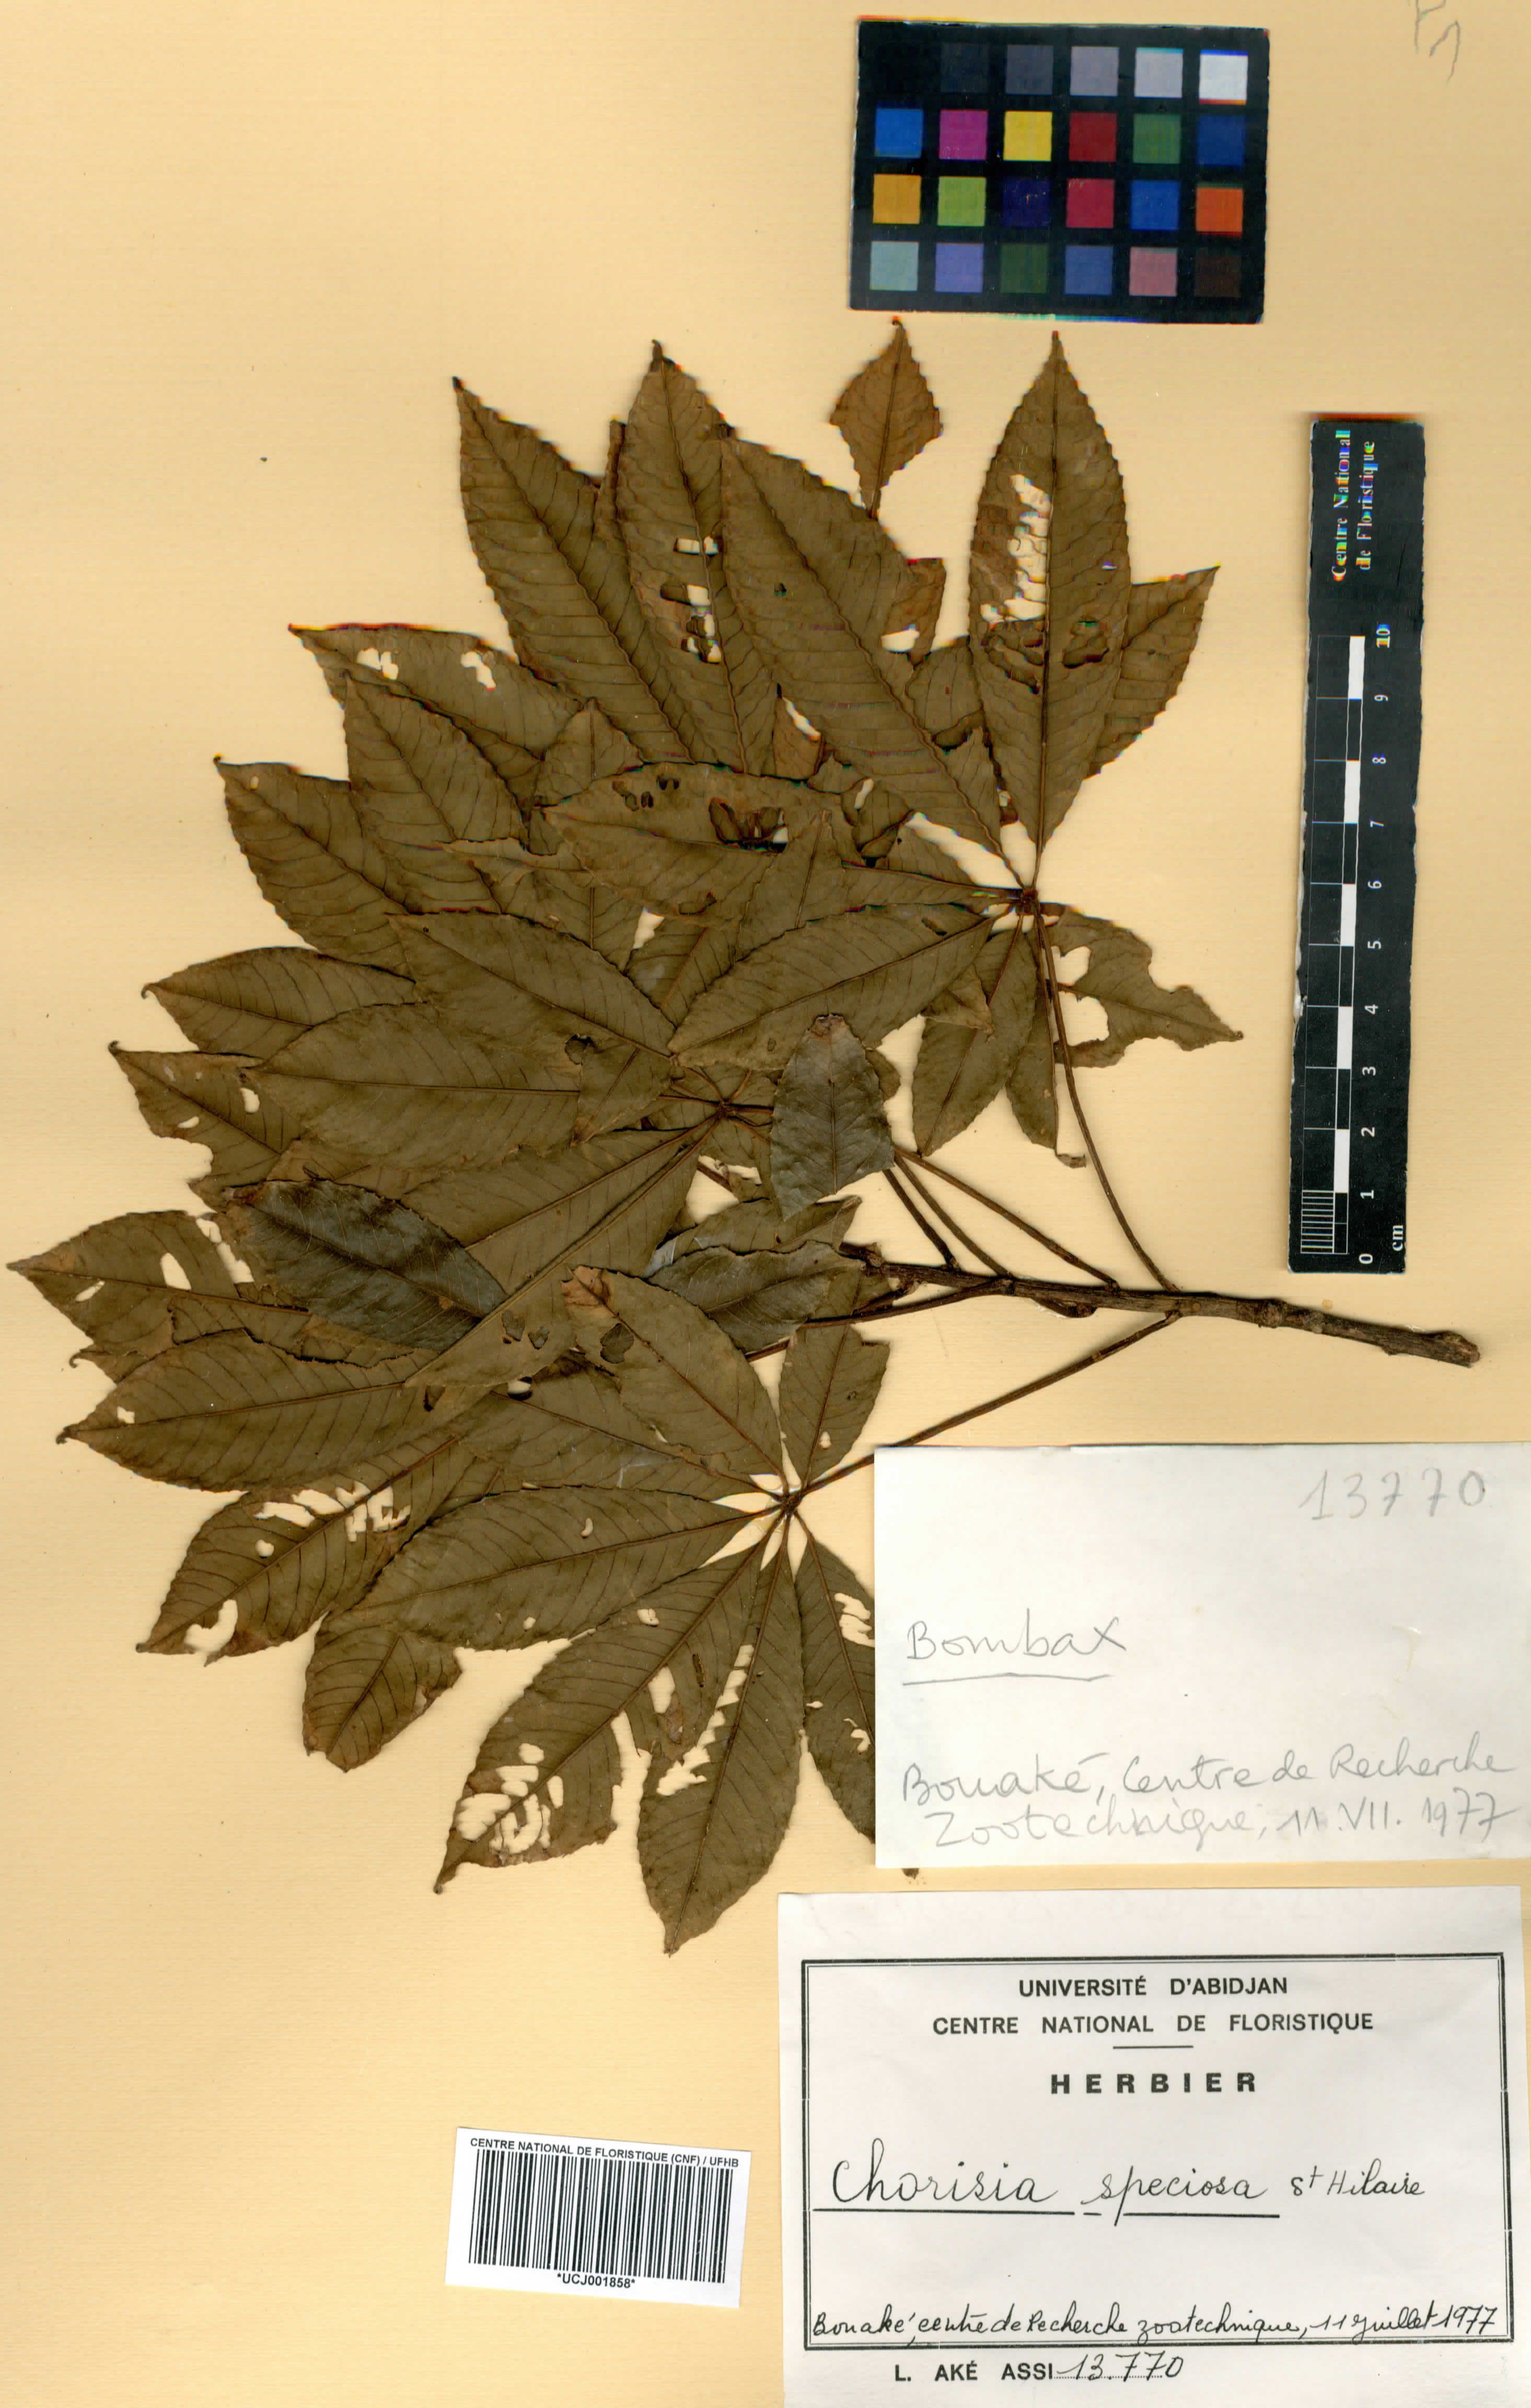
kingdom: Plantae
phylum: Tracheophyta
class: Magnoliopsida
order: Malvales
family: Malvaceae
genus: Ceiba
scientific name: Ceiba speciosa
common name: Silk-floss tree
